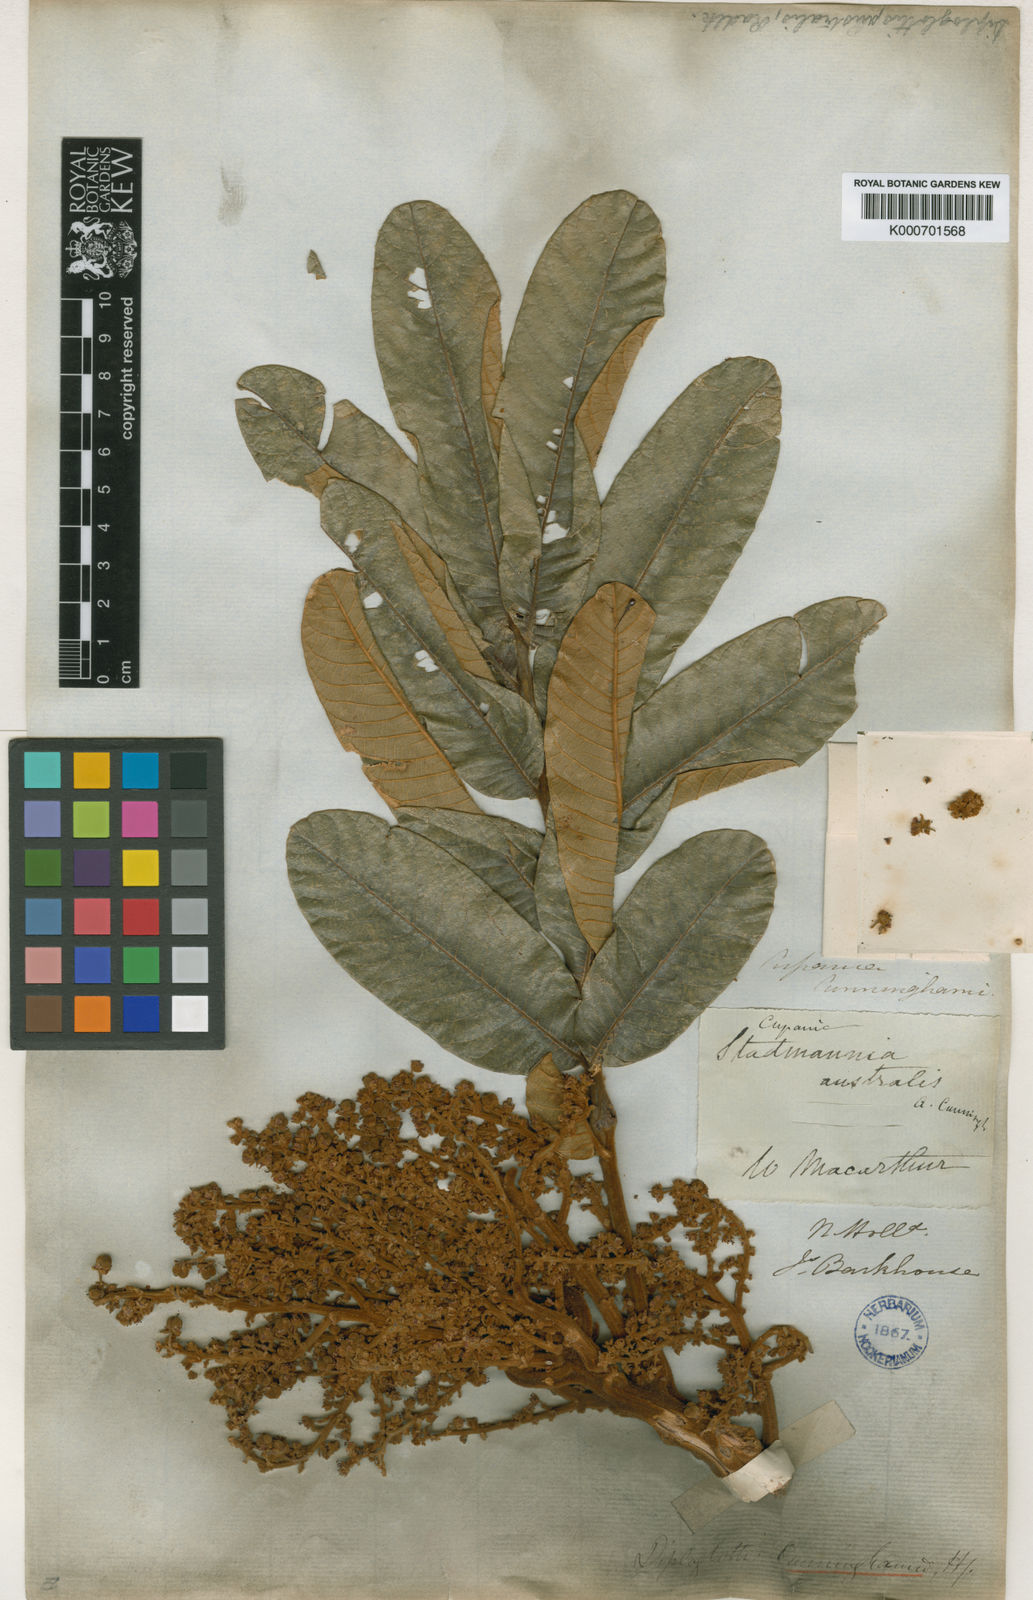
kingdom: Plantae
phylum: Tracheophyta
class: Magnoliopsida
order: Sapindales
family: Sapindaceae
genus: Diploglottis
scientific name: Diploglottis australis
